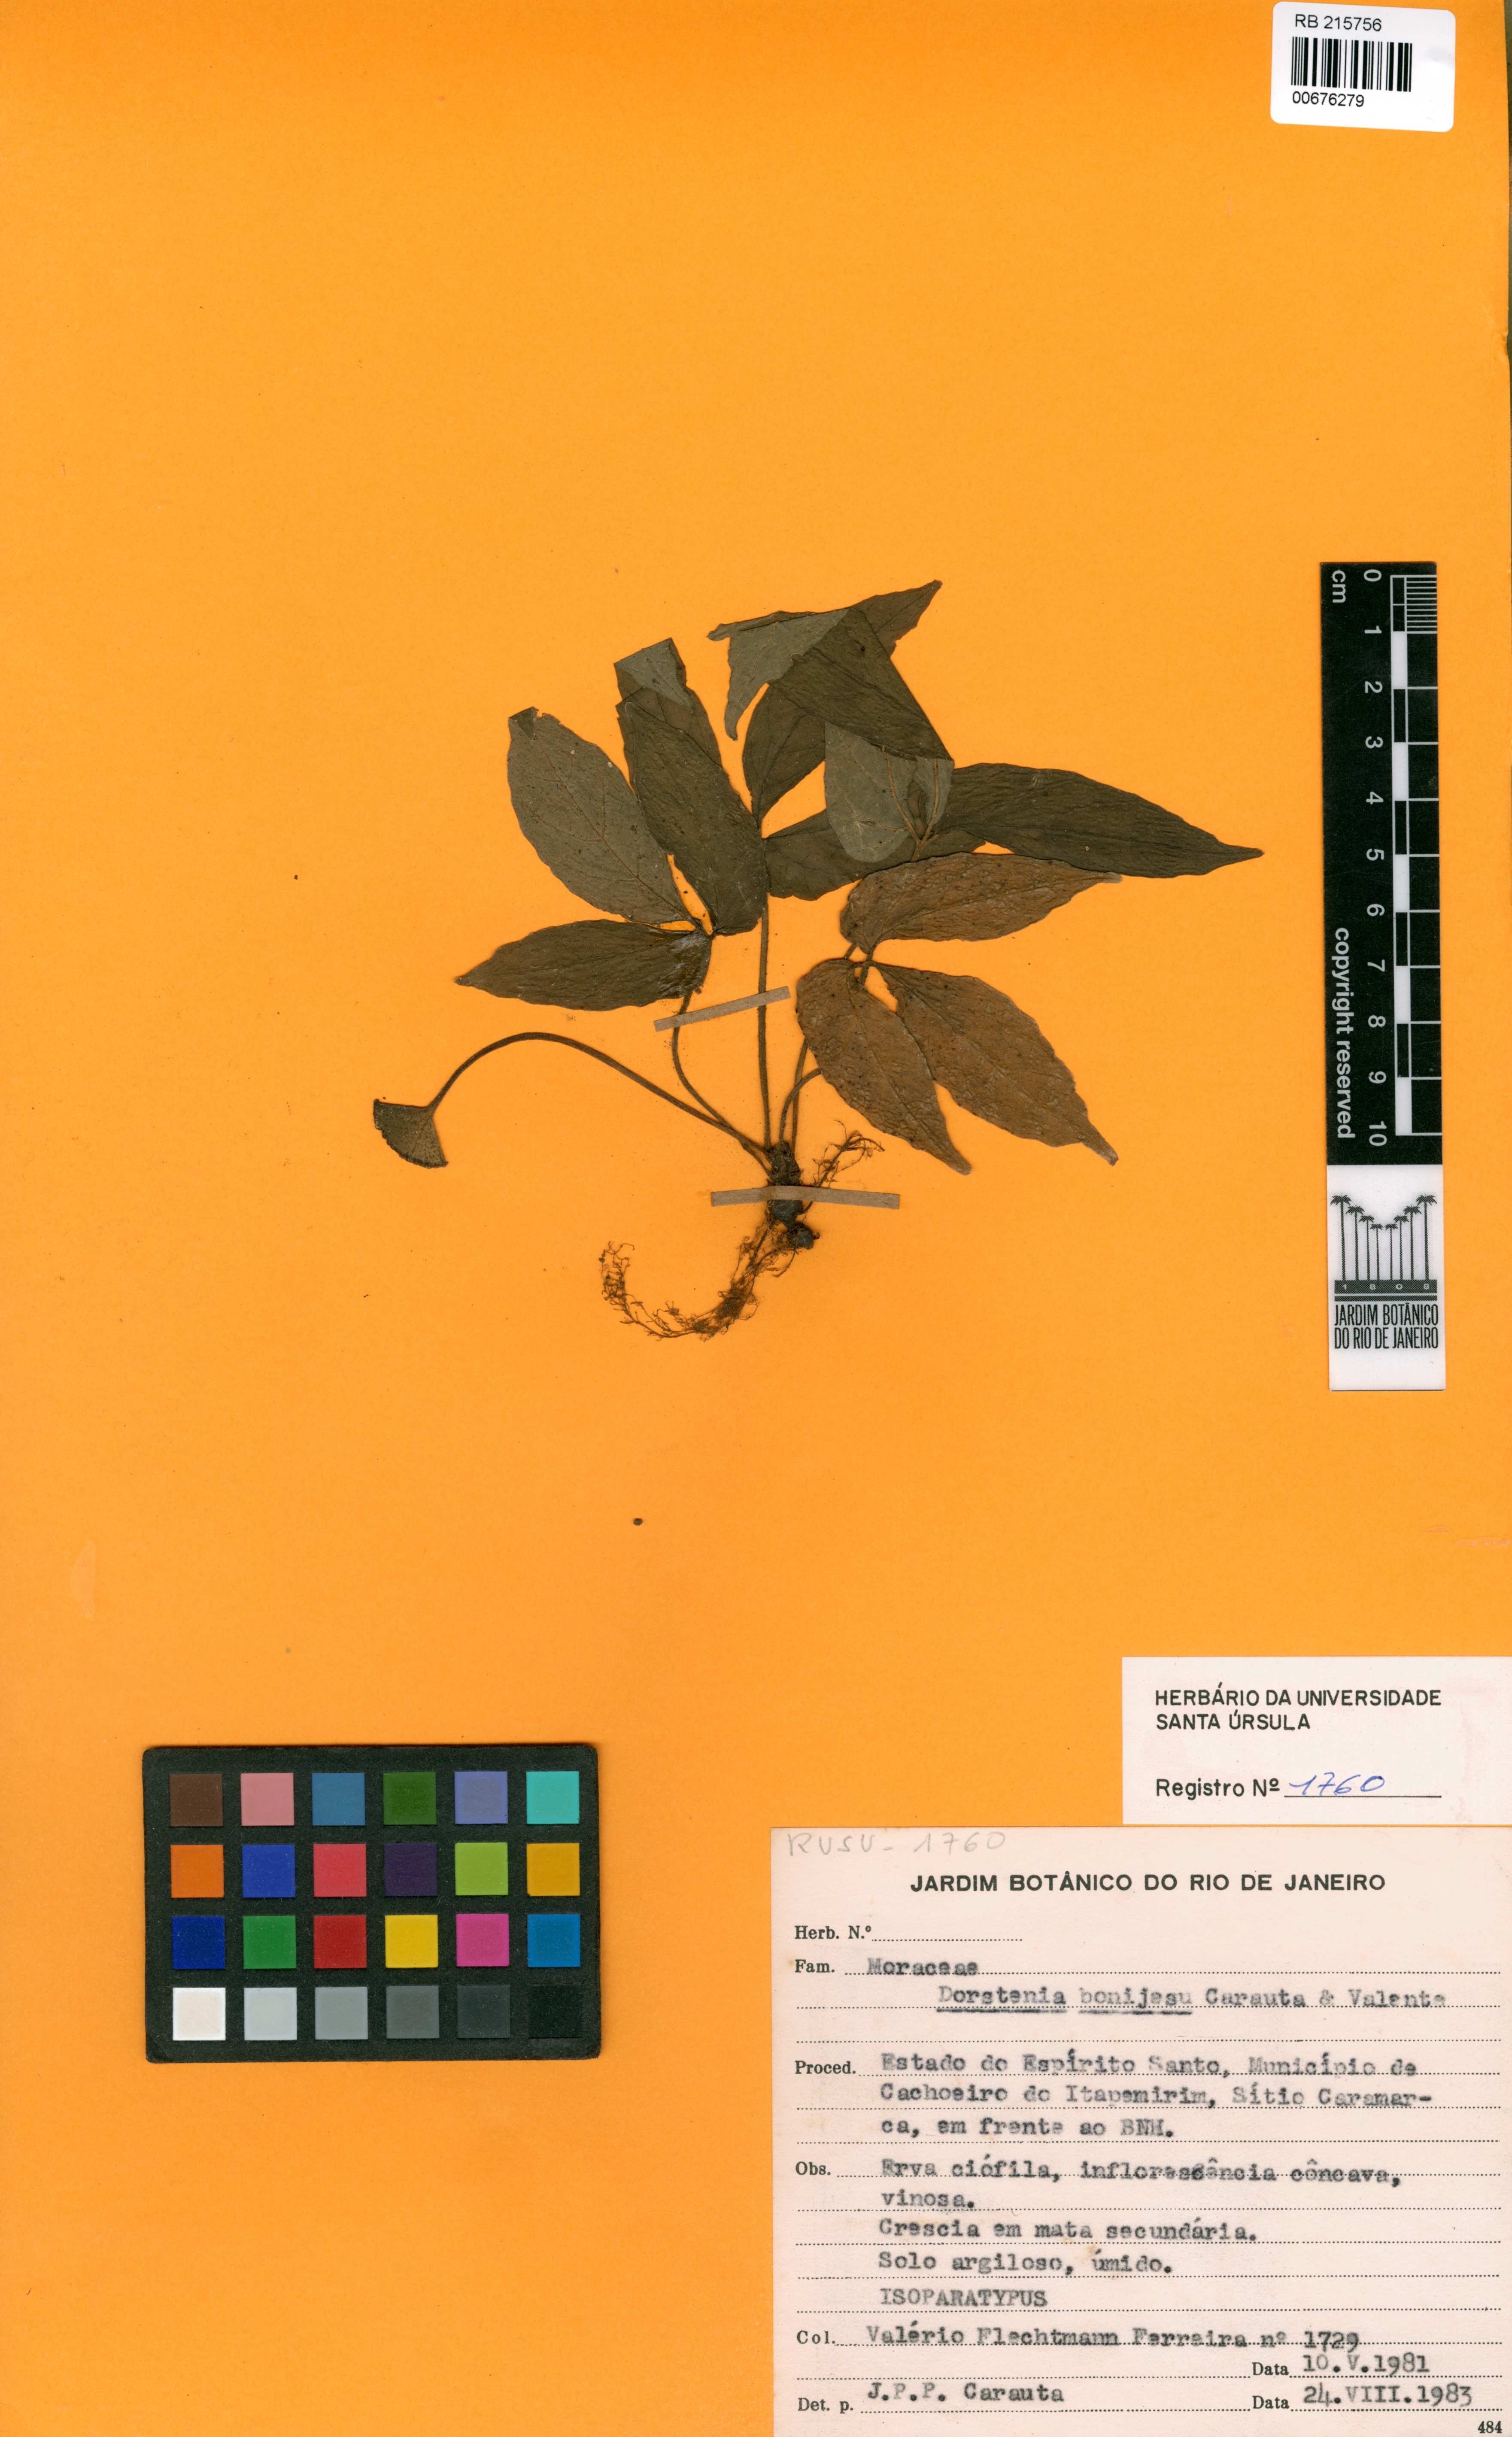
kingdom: Plantae
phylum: Tracheophyta
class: Magnoliopsida
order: Rosales
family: Moraceae
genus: Dorstenia
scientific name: Dorstenia bonijesu
